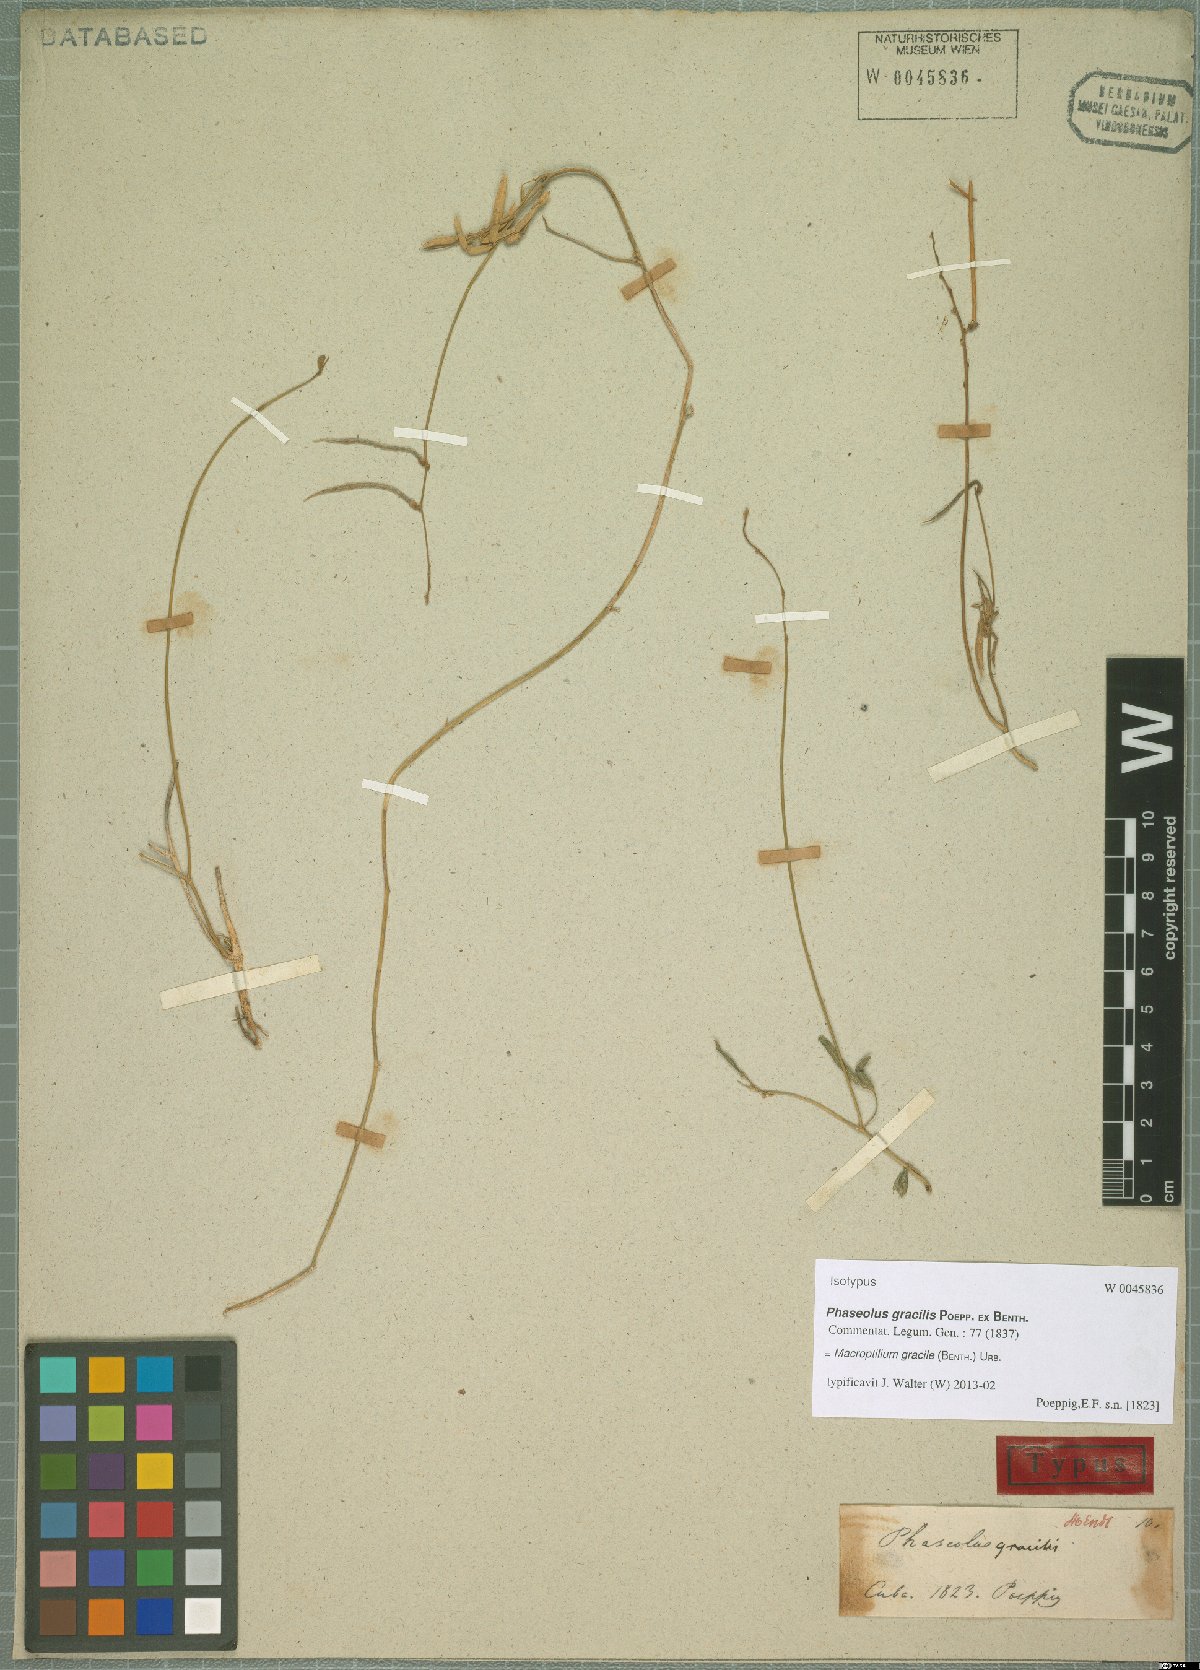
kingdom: Plantae
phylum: Tracheophyta
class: Magnoliopsida
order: Fabales
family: Fabaceae
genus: Macroptilium
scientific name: Macroptilium gracile
